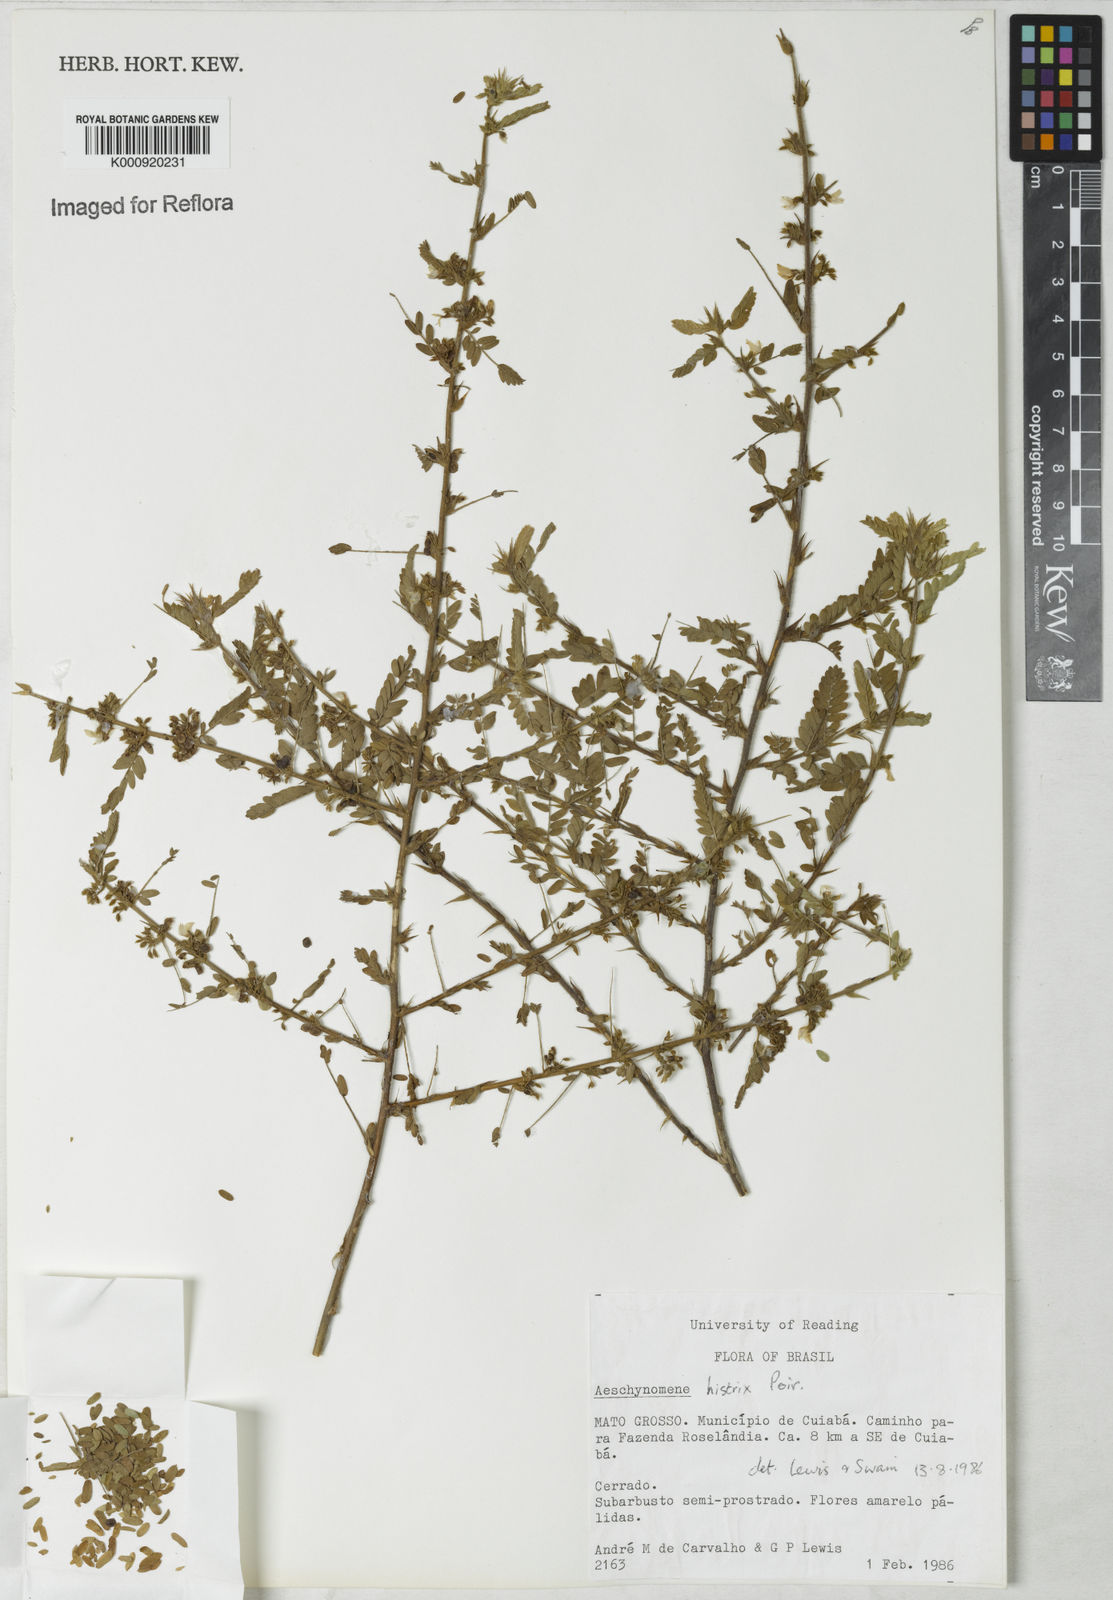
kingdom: Plantae
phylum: Tracheophyta
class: Magnoliopsida
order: Fabales
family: Fabaceae
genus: Ctenodon
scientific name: Ctenodon histrix
